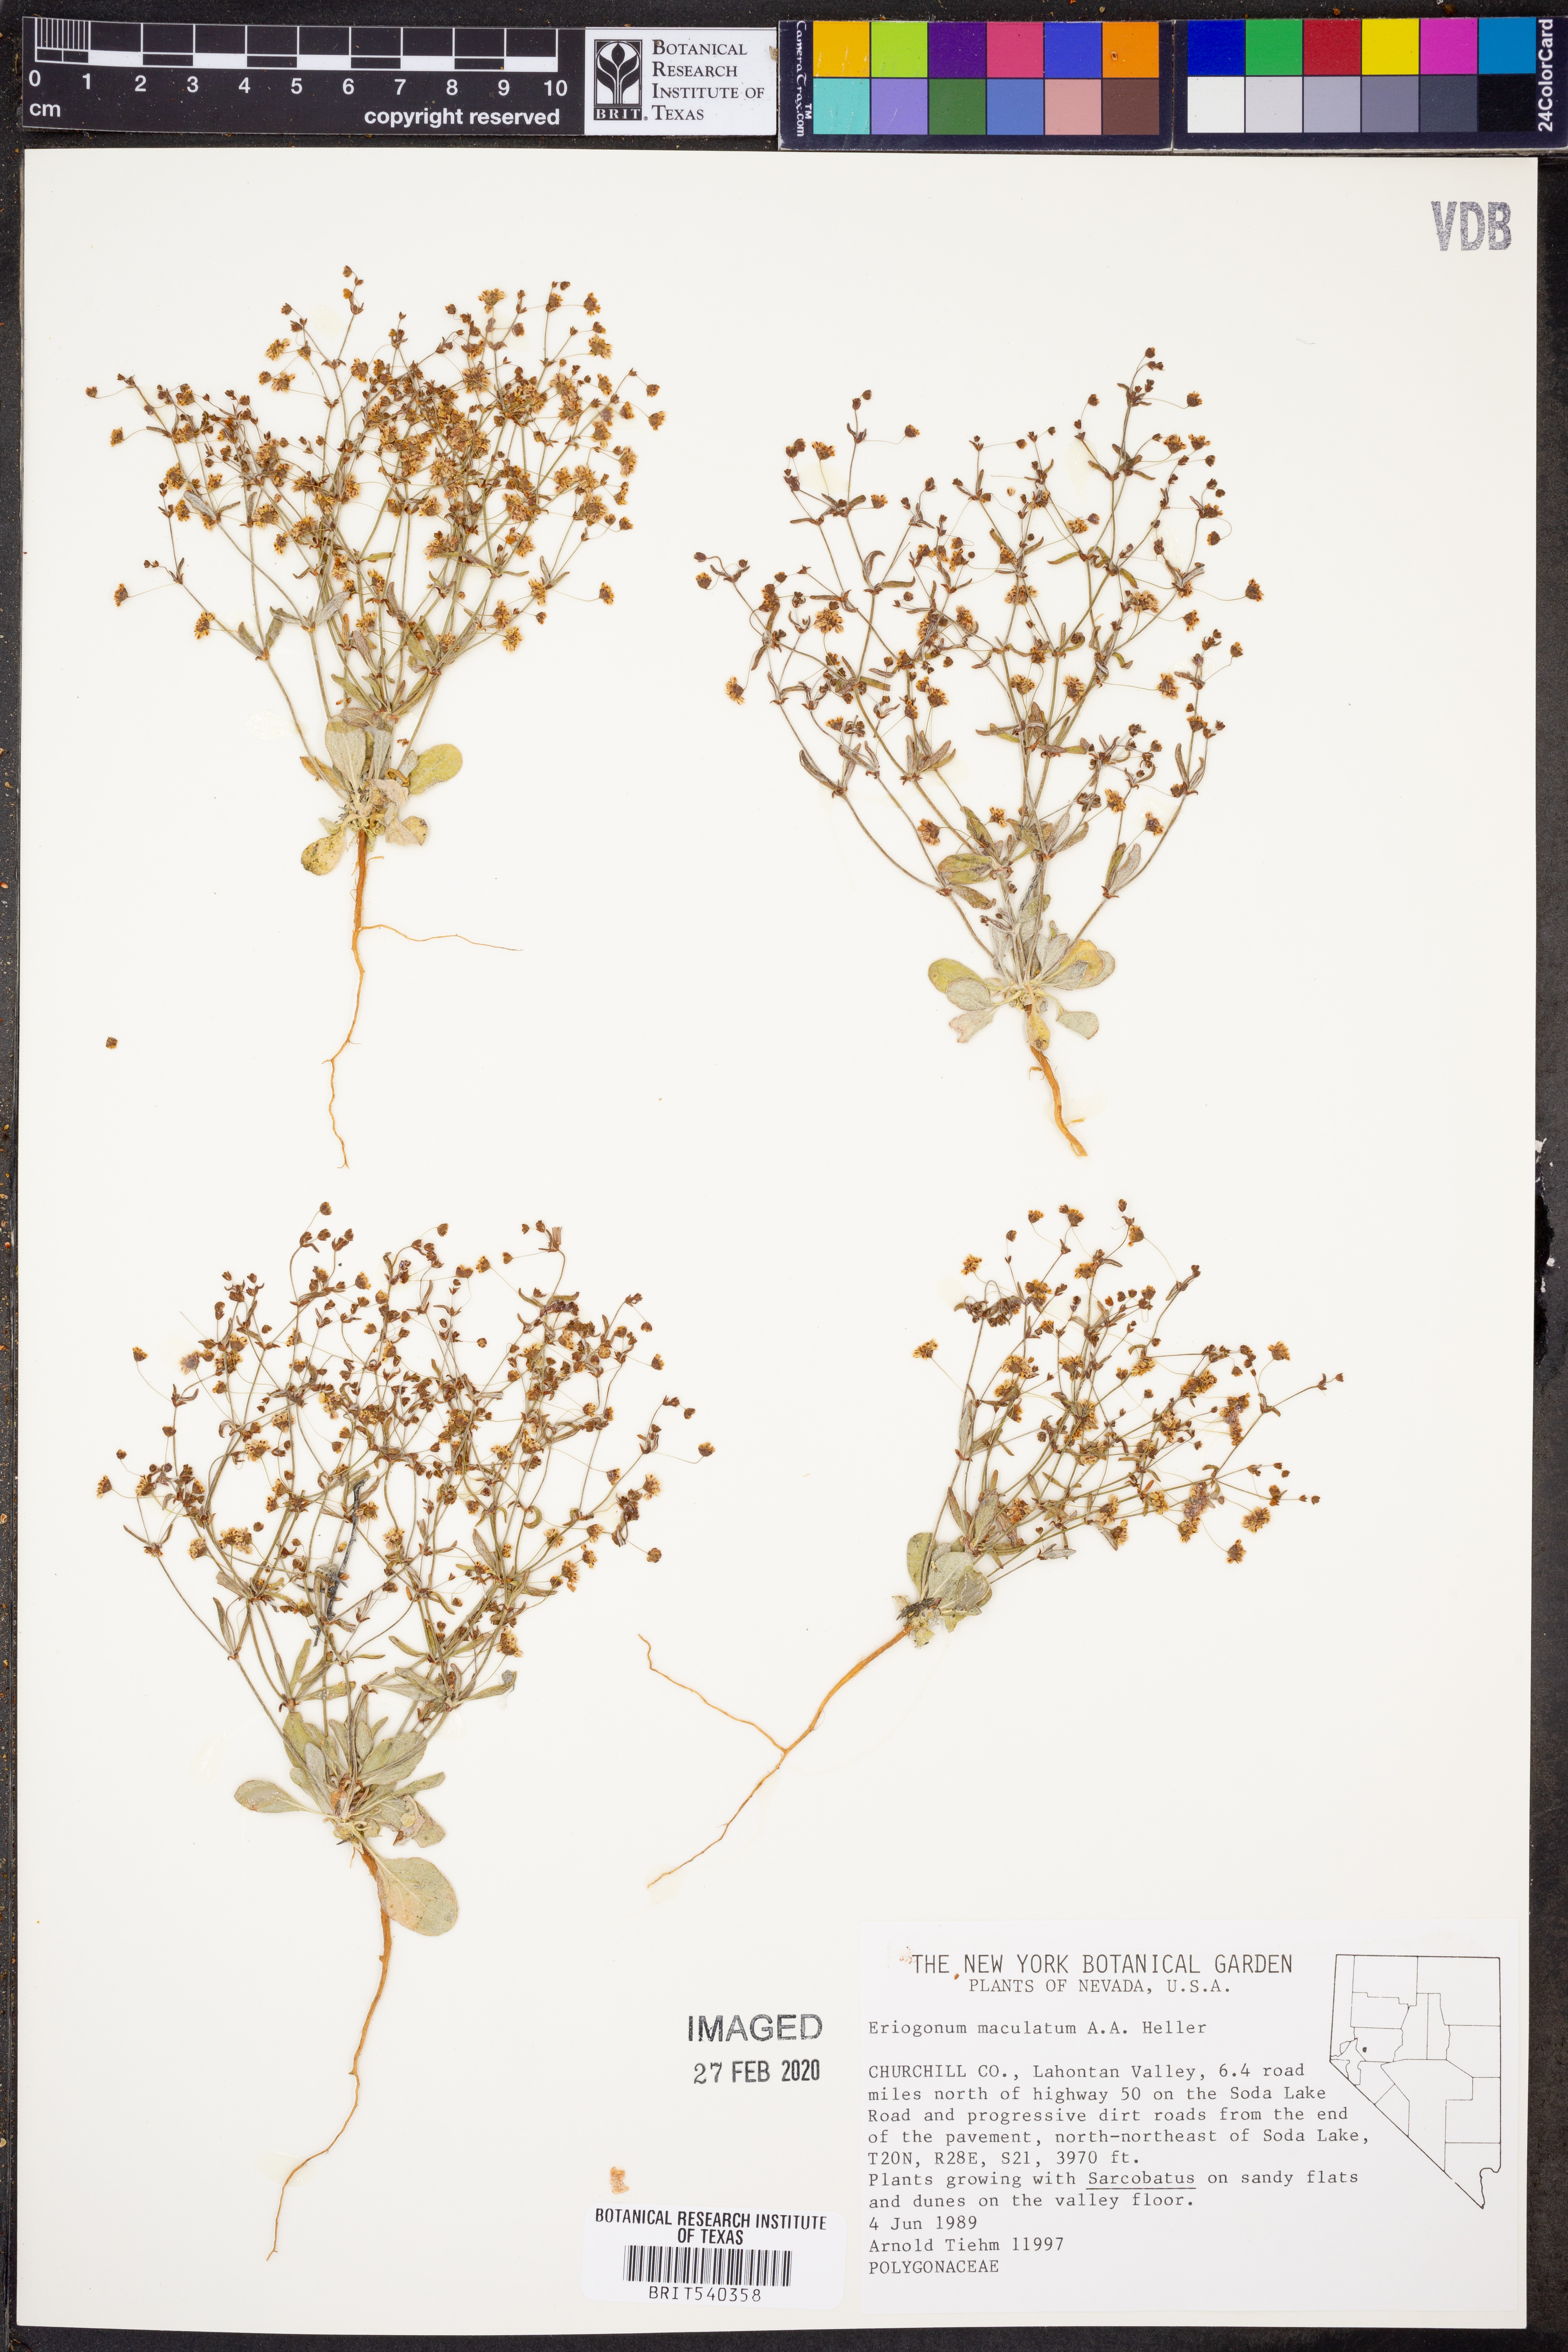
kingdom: Plantae
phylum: Tracheophyta
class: Magnoliopsida
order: Caryophyllales
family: Polygonaceae
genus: Eriogonum
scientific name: Eriogonum maculatum
